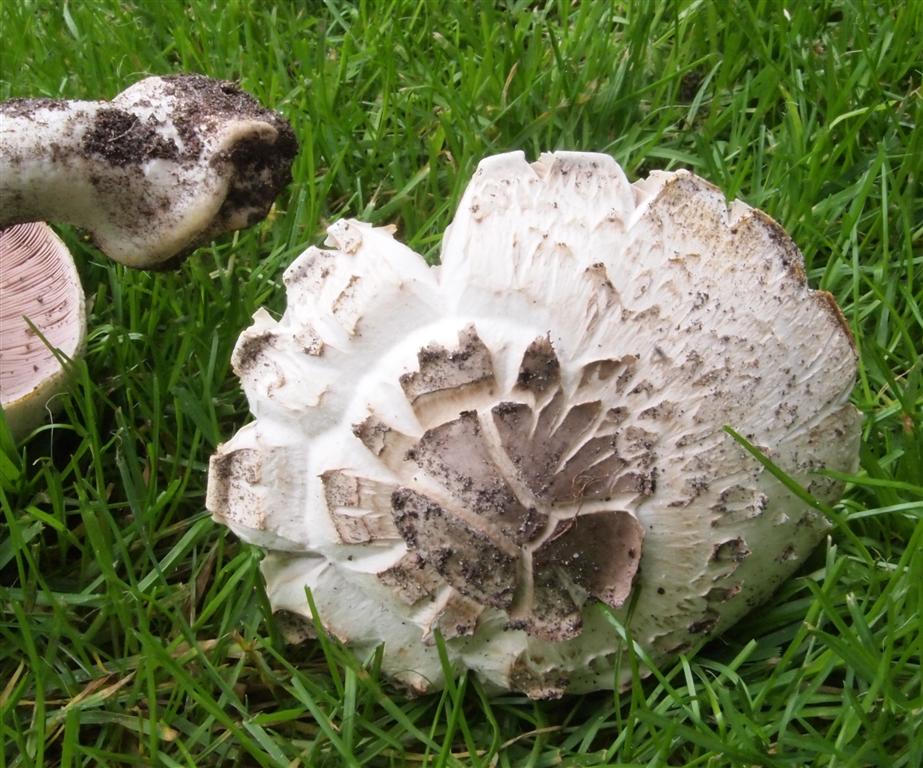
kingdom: Fungi
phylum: Basidiomycota
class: Agaricomycetes
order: Agaricales
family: Agaricaceae
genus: Agaricus
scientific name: Agaricus xanthodermus
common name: karbol-champignon
